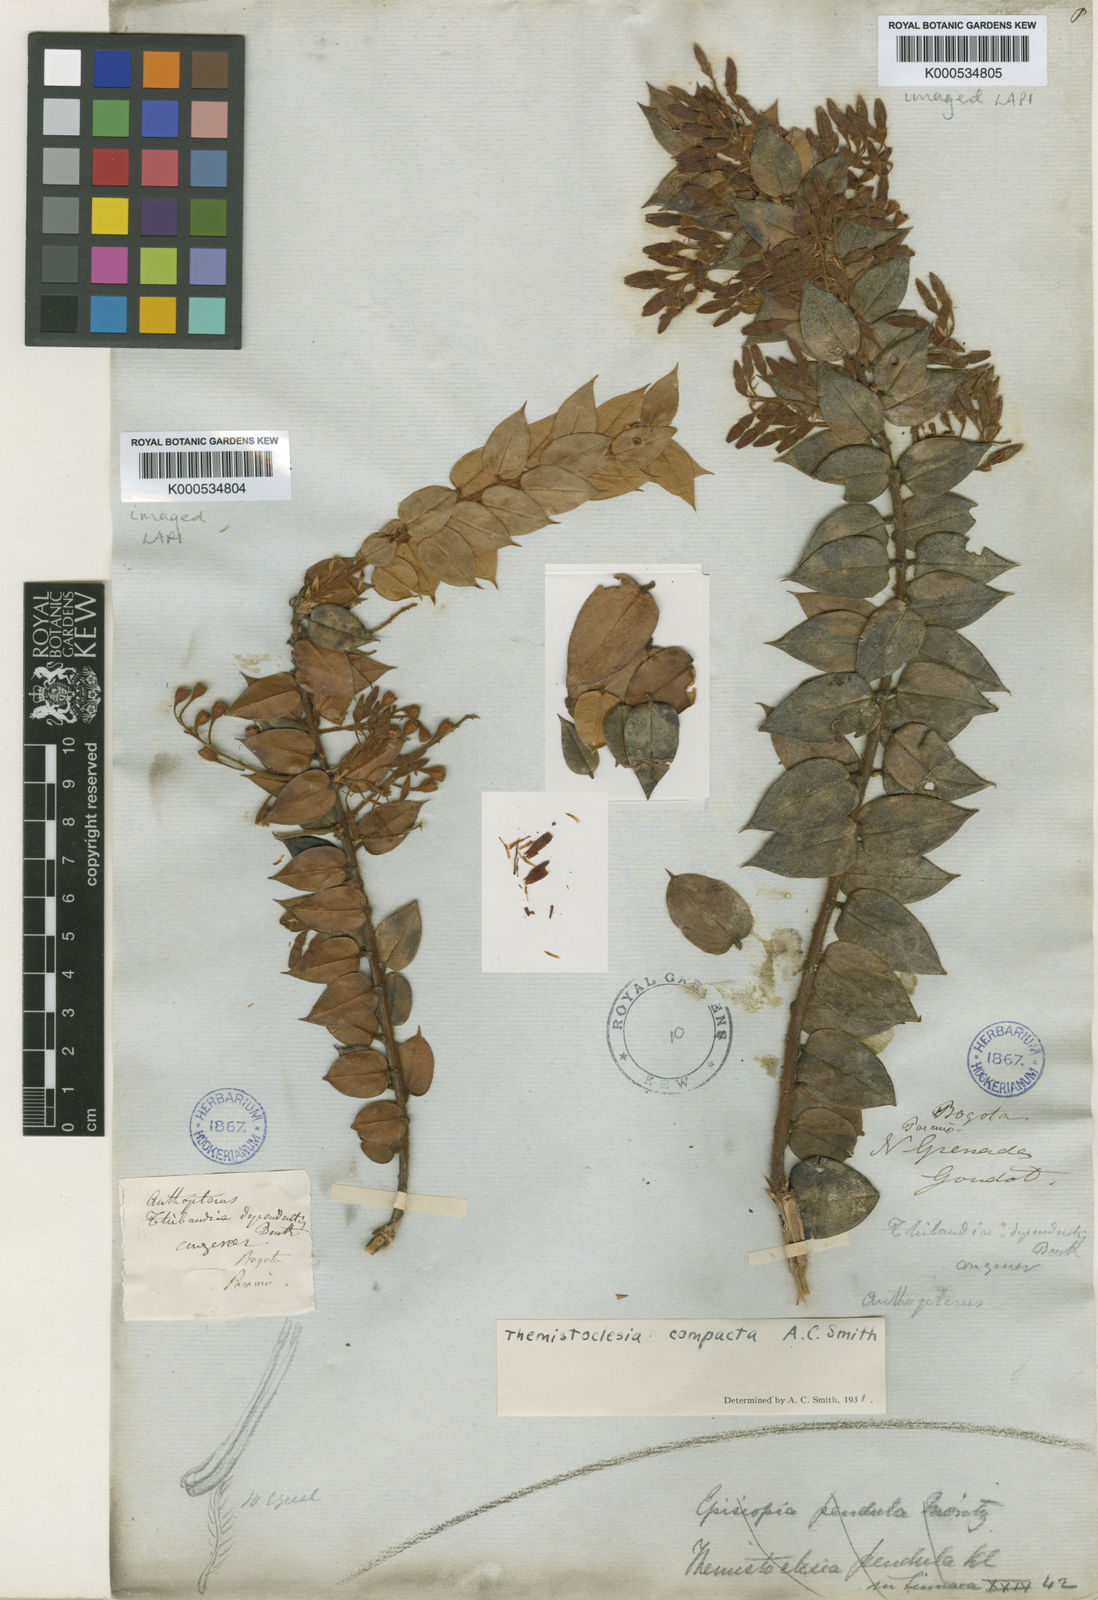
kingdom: Plantae
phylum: Tracheophyta
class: Magnoliopsida
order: Ericales
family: Ericaceae
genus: Themistoclesia
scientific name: Themistoclesia compacta
